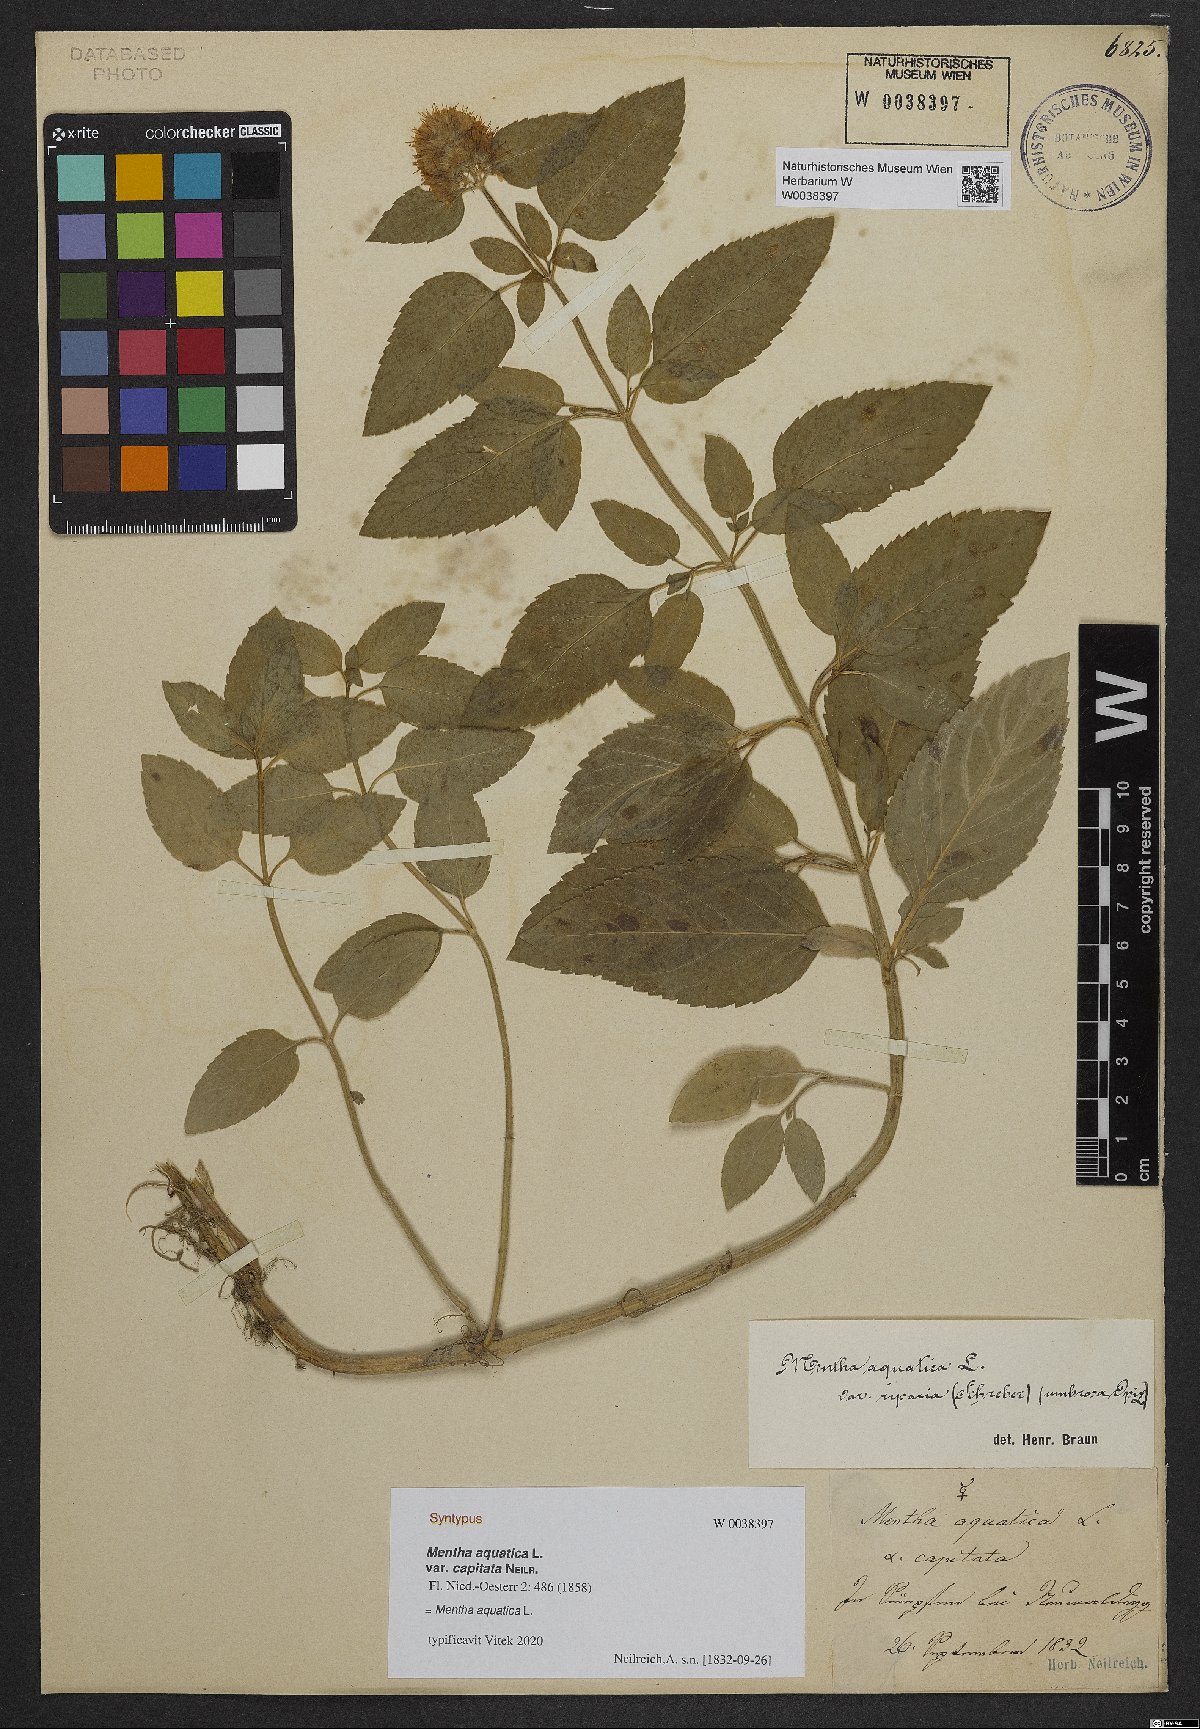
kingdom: Plantae
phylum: Tracheophyta
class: Magnoliopsida
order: Lamiales
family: Lamiaceae
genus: Mentha
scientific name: Mentha aquatica
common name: Water mint
